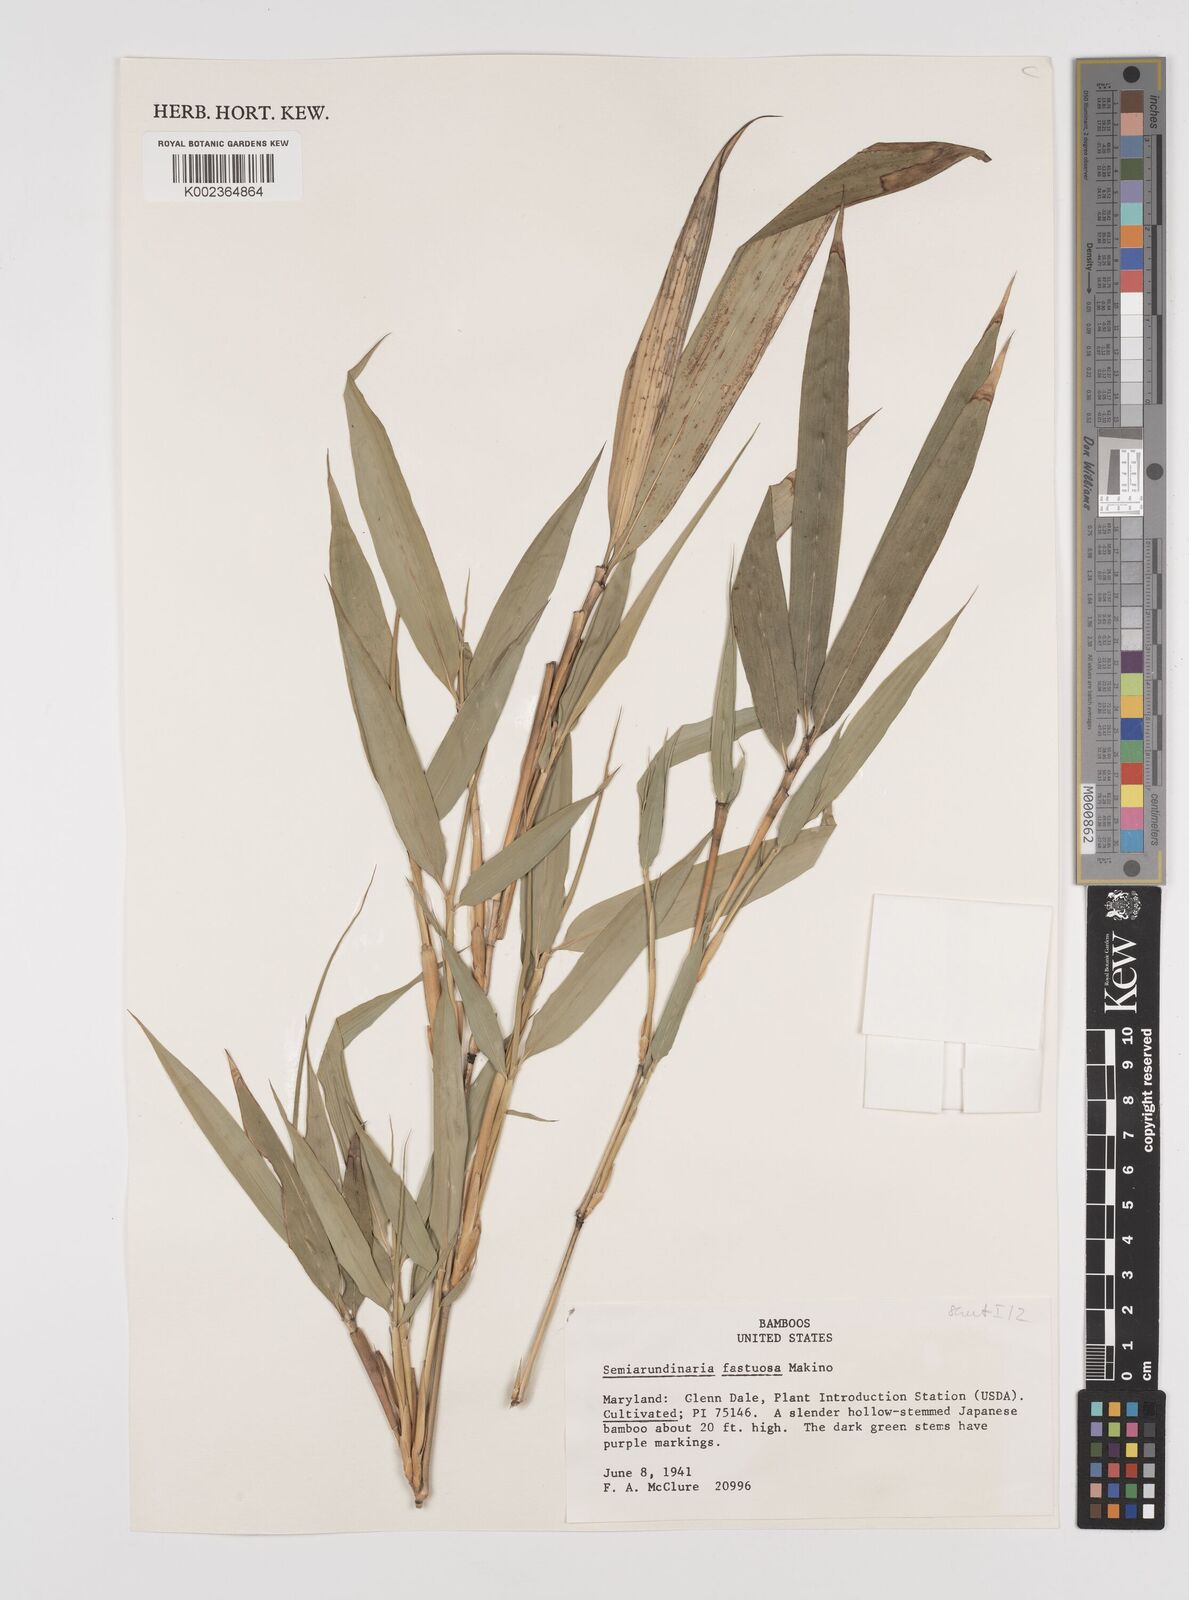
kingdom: Plantae
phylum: Tracheophyta
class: Liliopsida
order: Poales
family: Poaceae
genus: Semiarundinaria
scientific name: Semiarundinaria fastuosa
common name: Narihira bamboo
